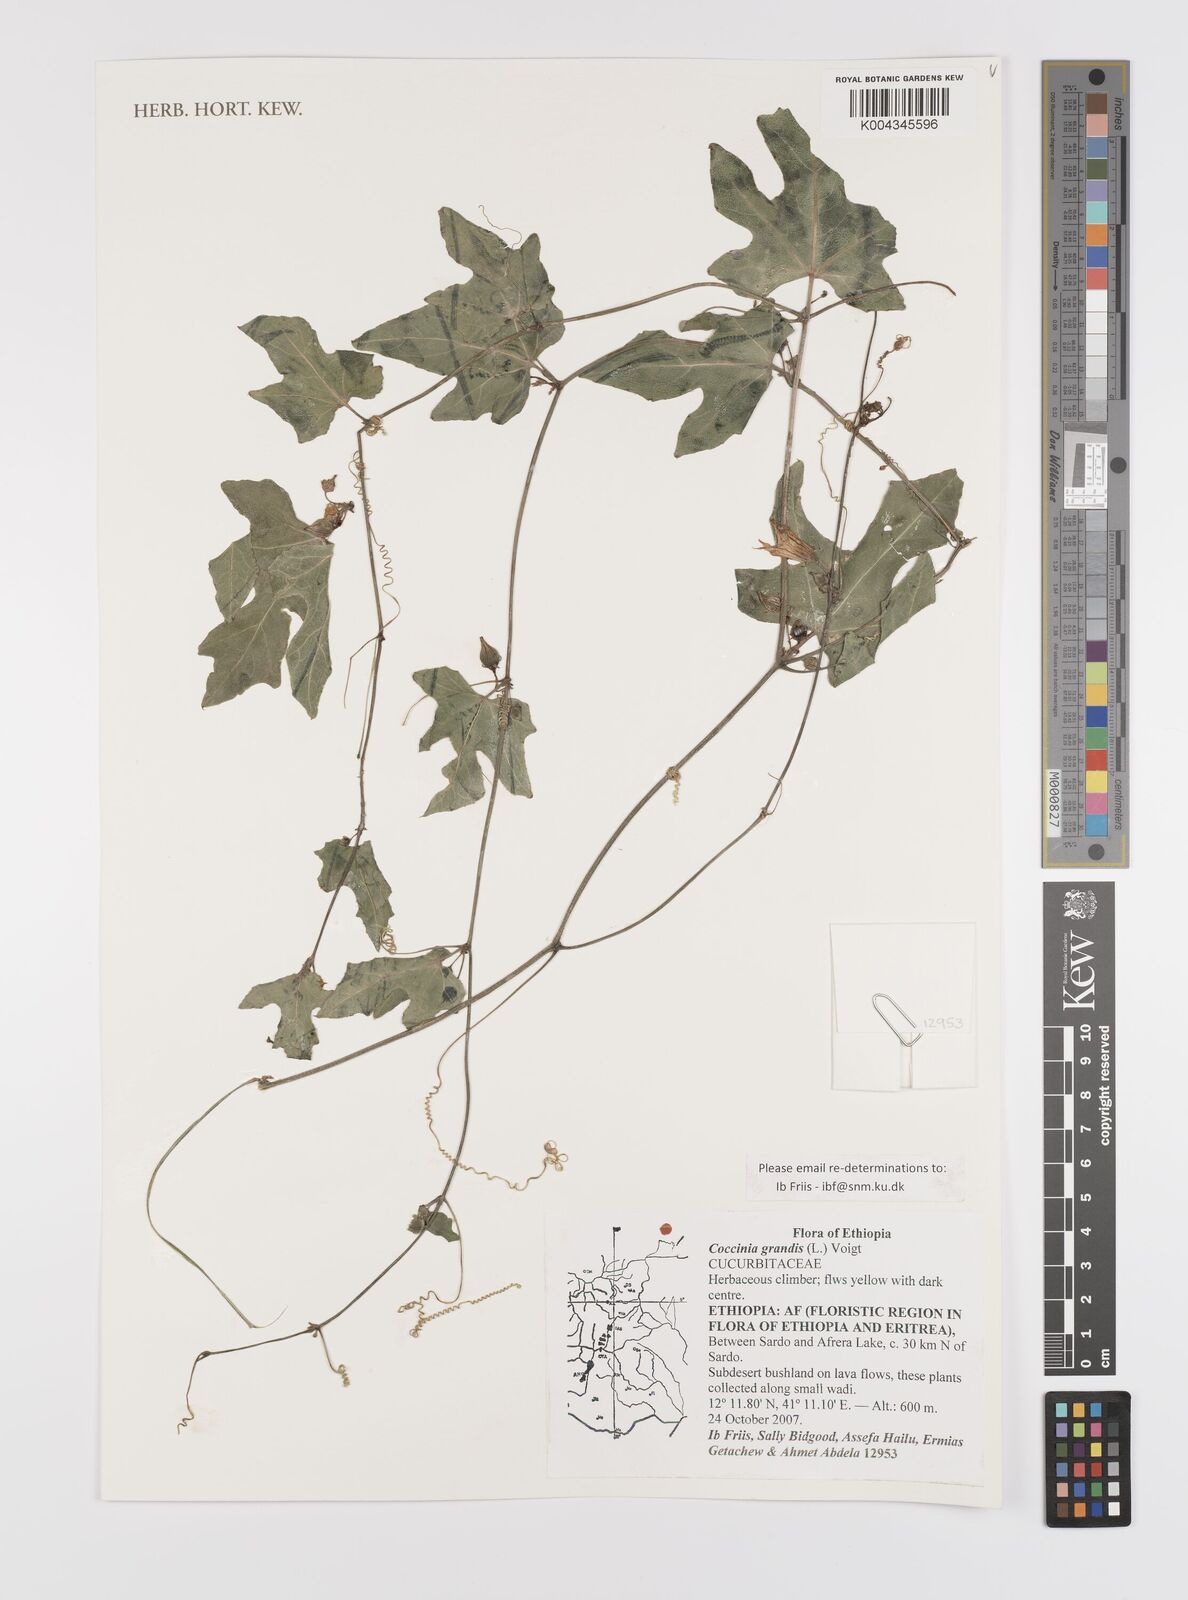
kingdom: Plantae
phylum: Tracheophyta
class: Magnoliopsida
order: Cucurbitales
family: Cucurbitaceae
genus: Coccinia
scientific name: Coccinia grandis
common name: Ivy gourd
